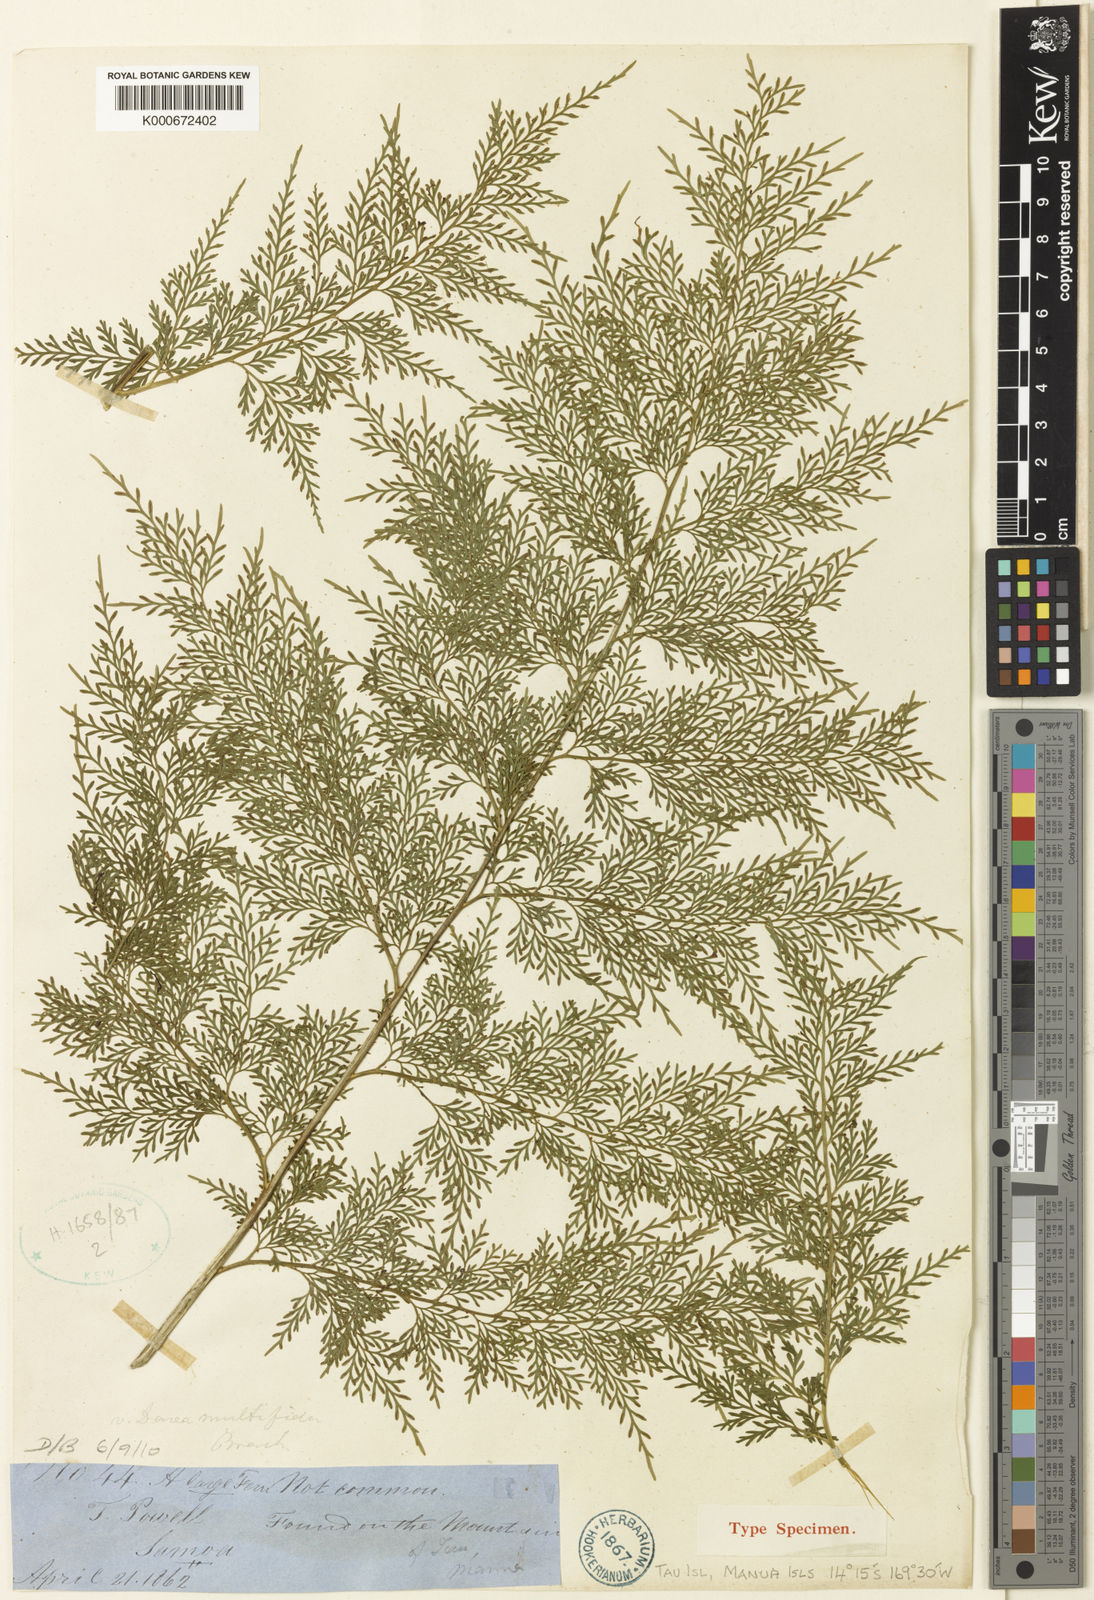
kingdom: Plantae
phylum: Tracheophyta
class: Polypodiopsida
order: Polypodiales
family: Aspleniaceae
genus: Asplenium
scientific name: Asplenium powellii
